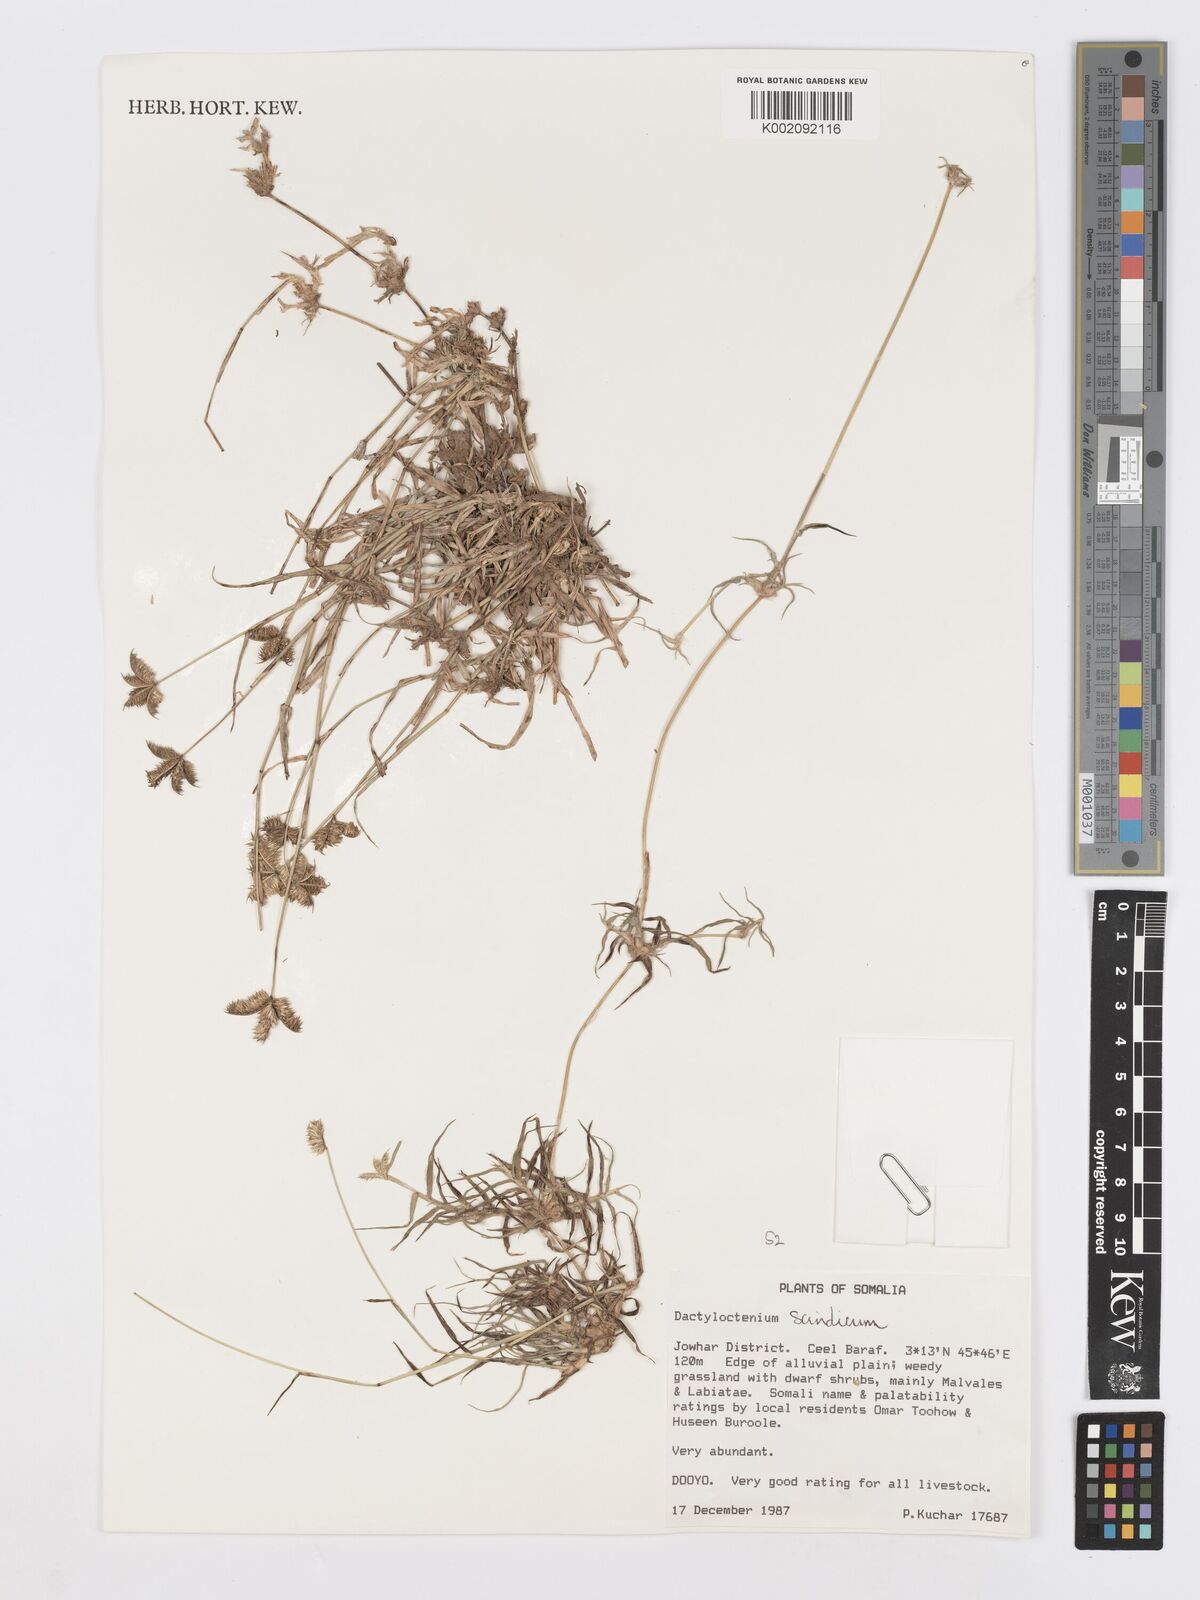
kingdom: Plantae
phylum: Tracheophyta
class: Liliopsida
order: Poales
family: Poaceae
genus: Dactyloctenium
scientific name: Dactyloctenium scindicum
